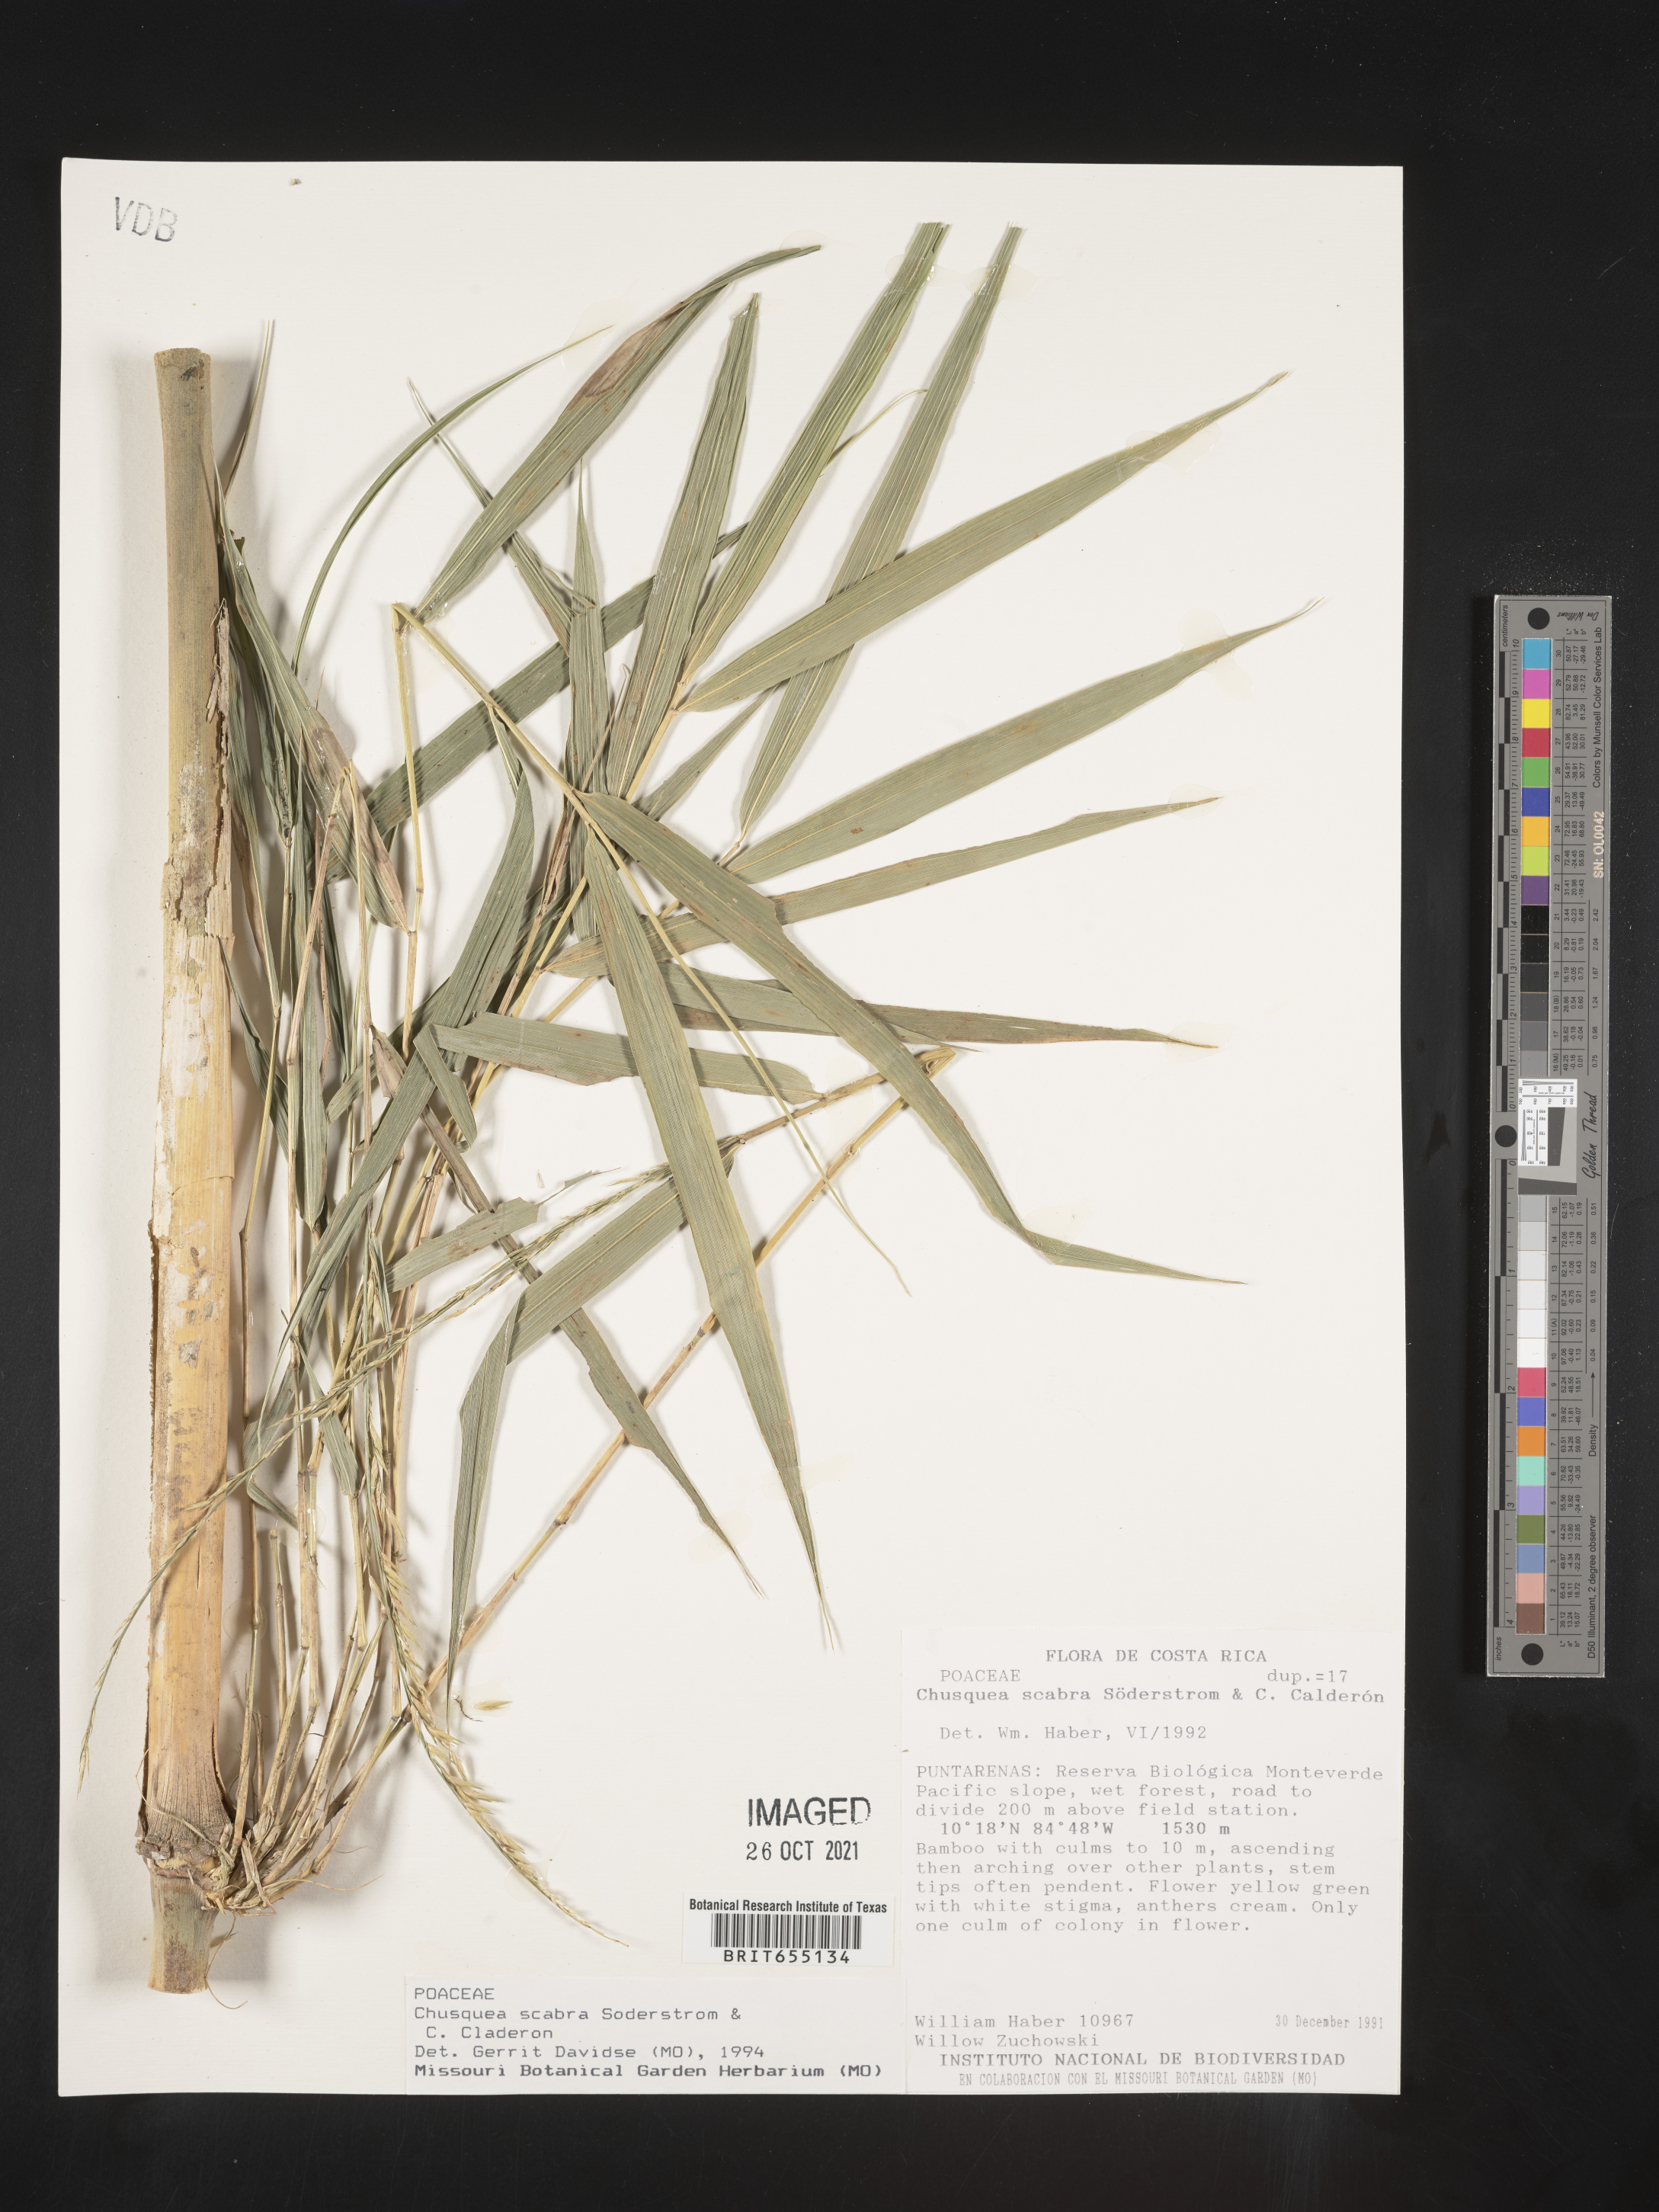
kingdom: Plantae
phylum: Tracheophyta
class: Liliopsida
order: Poales
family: Poaceae
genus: Chusquea
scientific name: Chusquea
